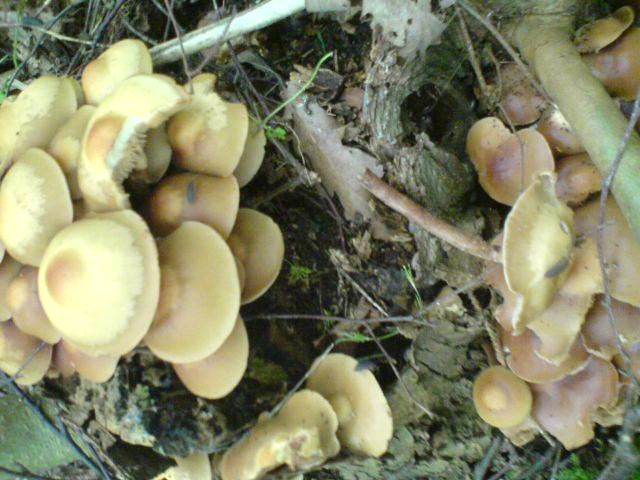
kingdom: Fungi
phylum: Basidiomycota
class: Agaricomycetes
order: Agaricales
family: Strophariaceae
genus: Kuehneromyces
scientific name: Kuehneromyces mutabilis
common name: foranderlig skælhat
